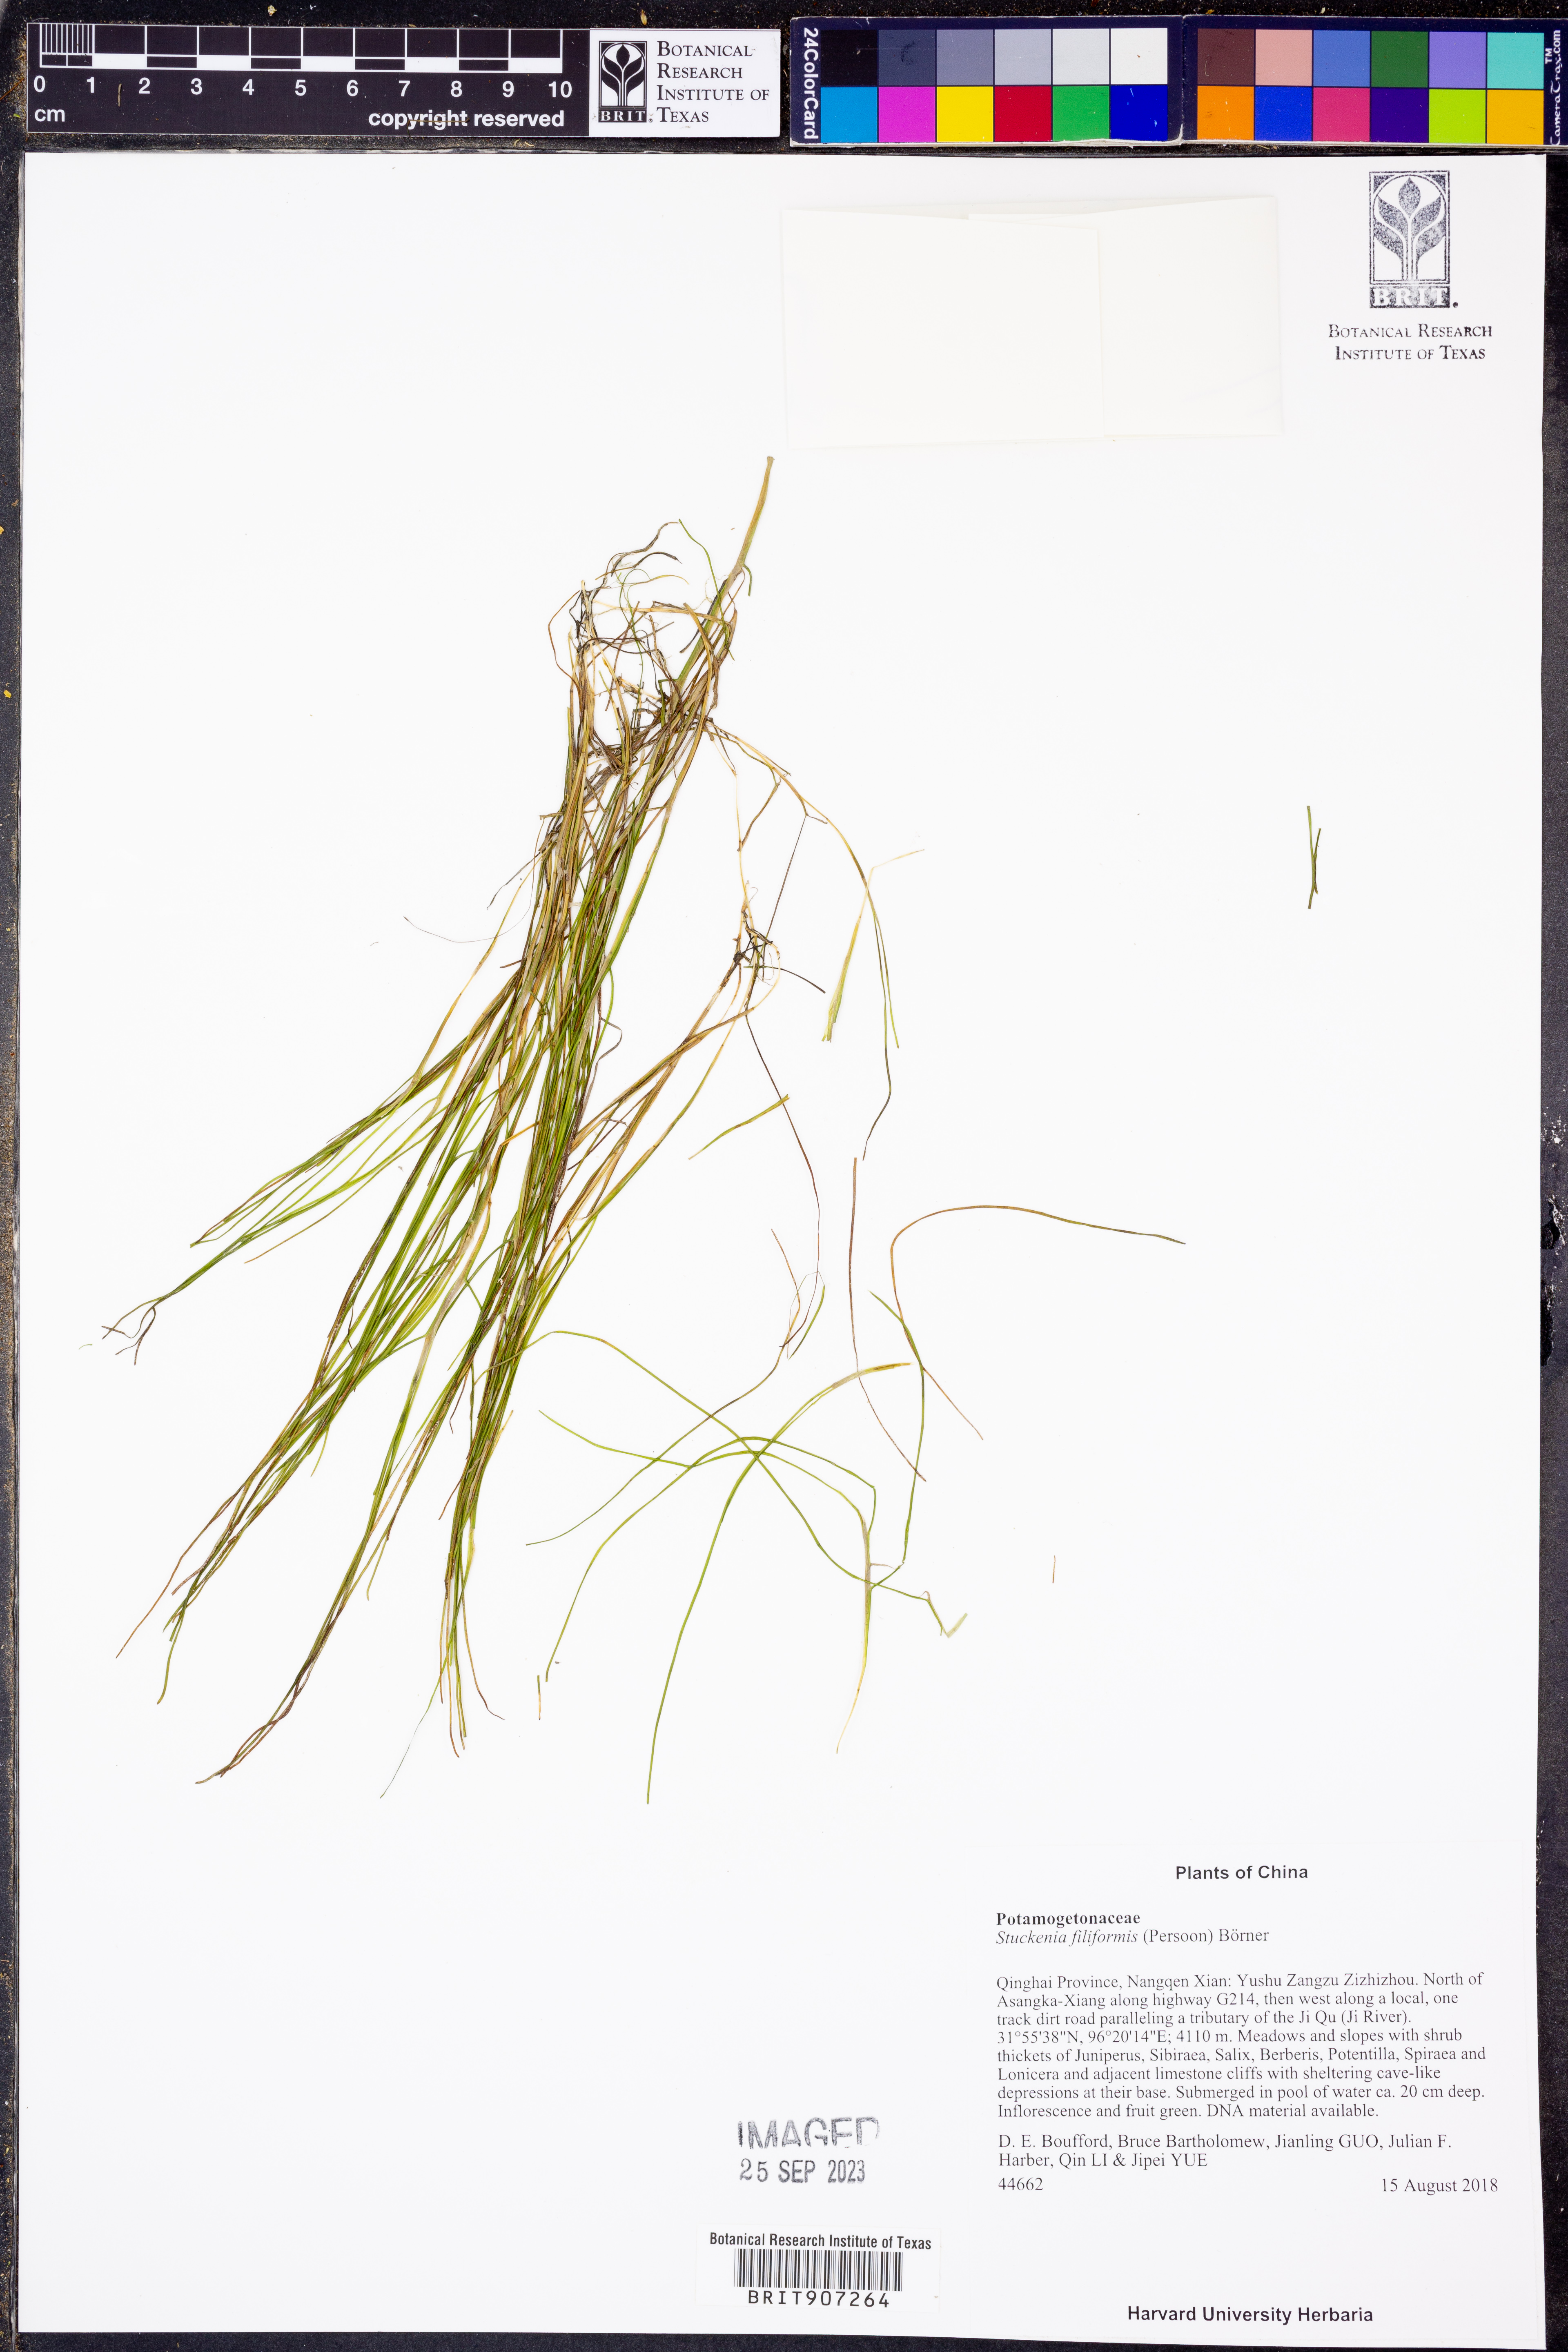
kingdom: Plantae
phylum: Tracheophyta
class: Liliopsida
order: Alismatales
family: Potamogetonaceae
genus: Stuckenia
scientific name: Stuckenia filiformis
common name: Alpine thread-leaved pondweed
